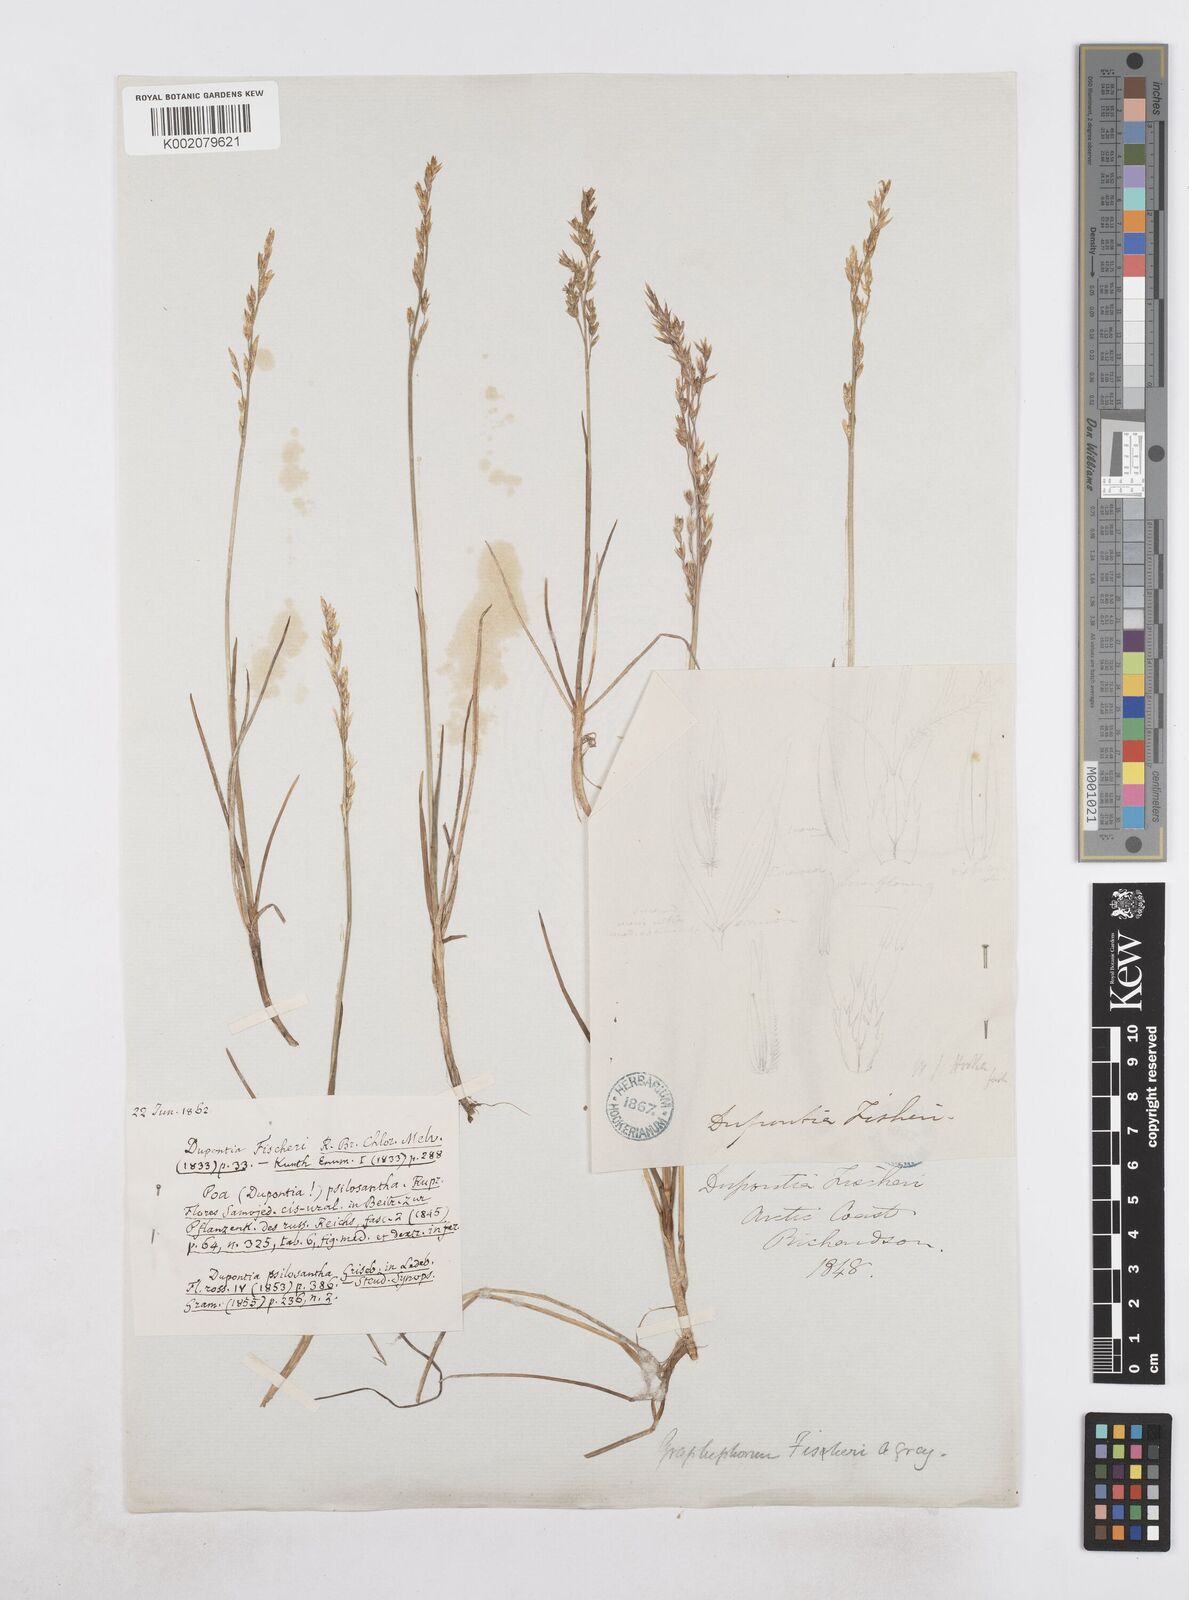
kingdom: Plantae
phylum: Tracheophyta
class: Liliopsida
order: Poales
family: Poaceae
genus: Dupontia
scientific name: Dupontia fisheri
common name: Tundra grass
